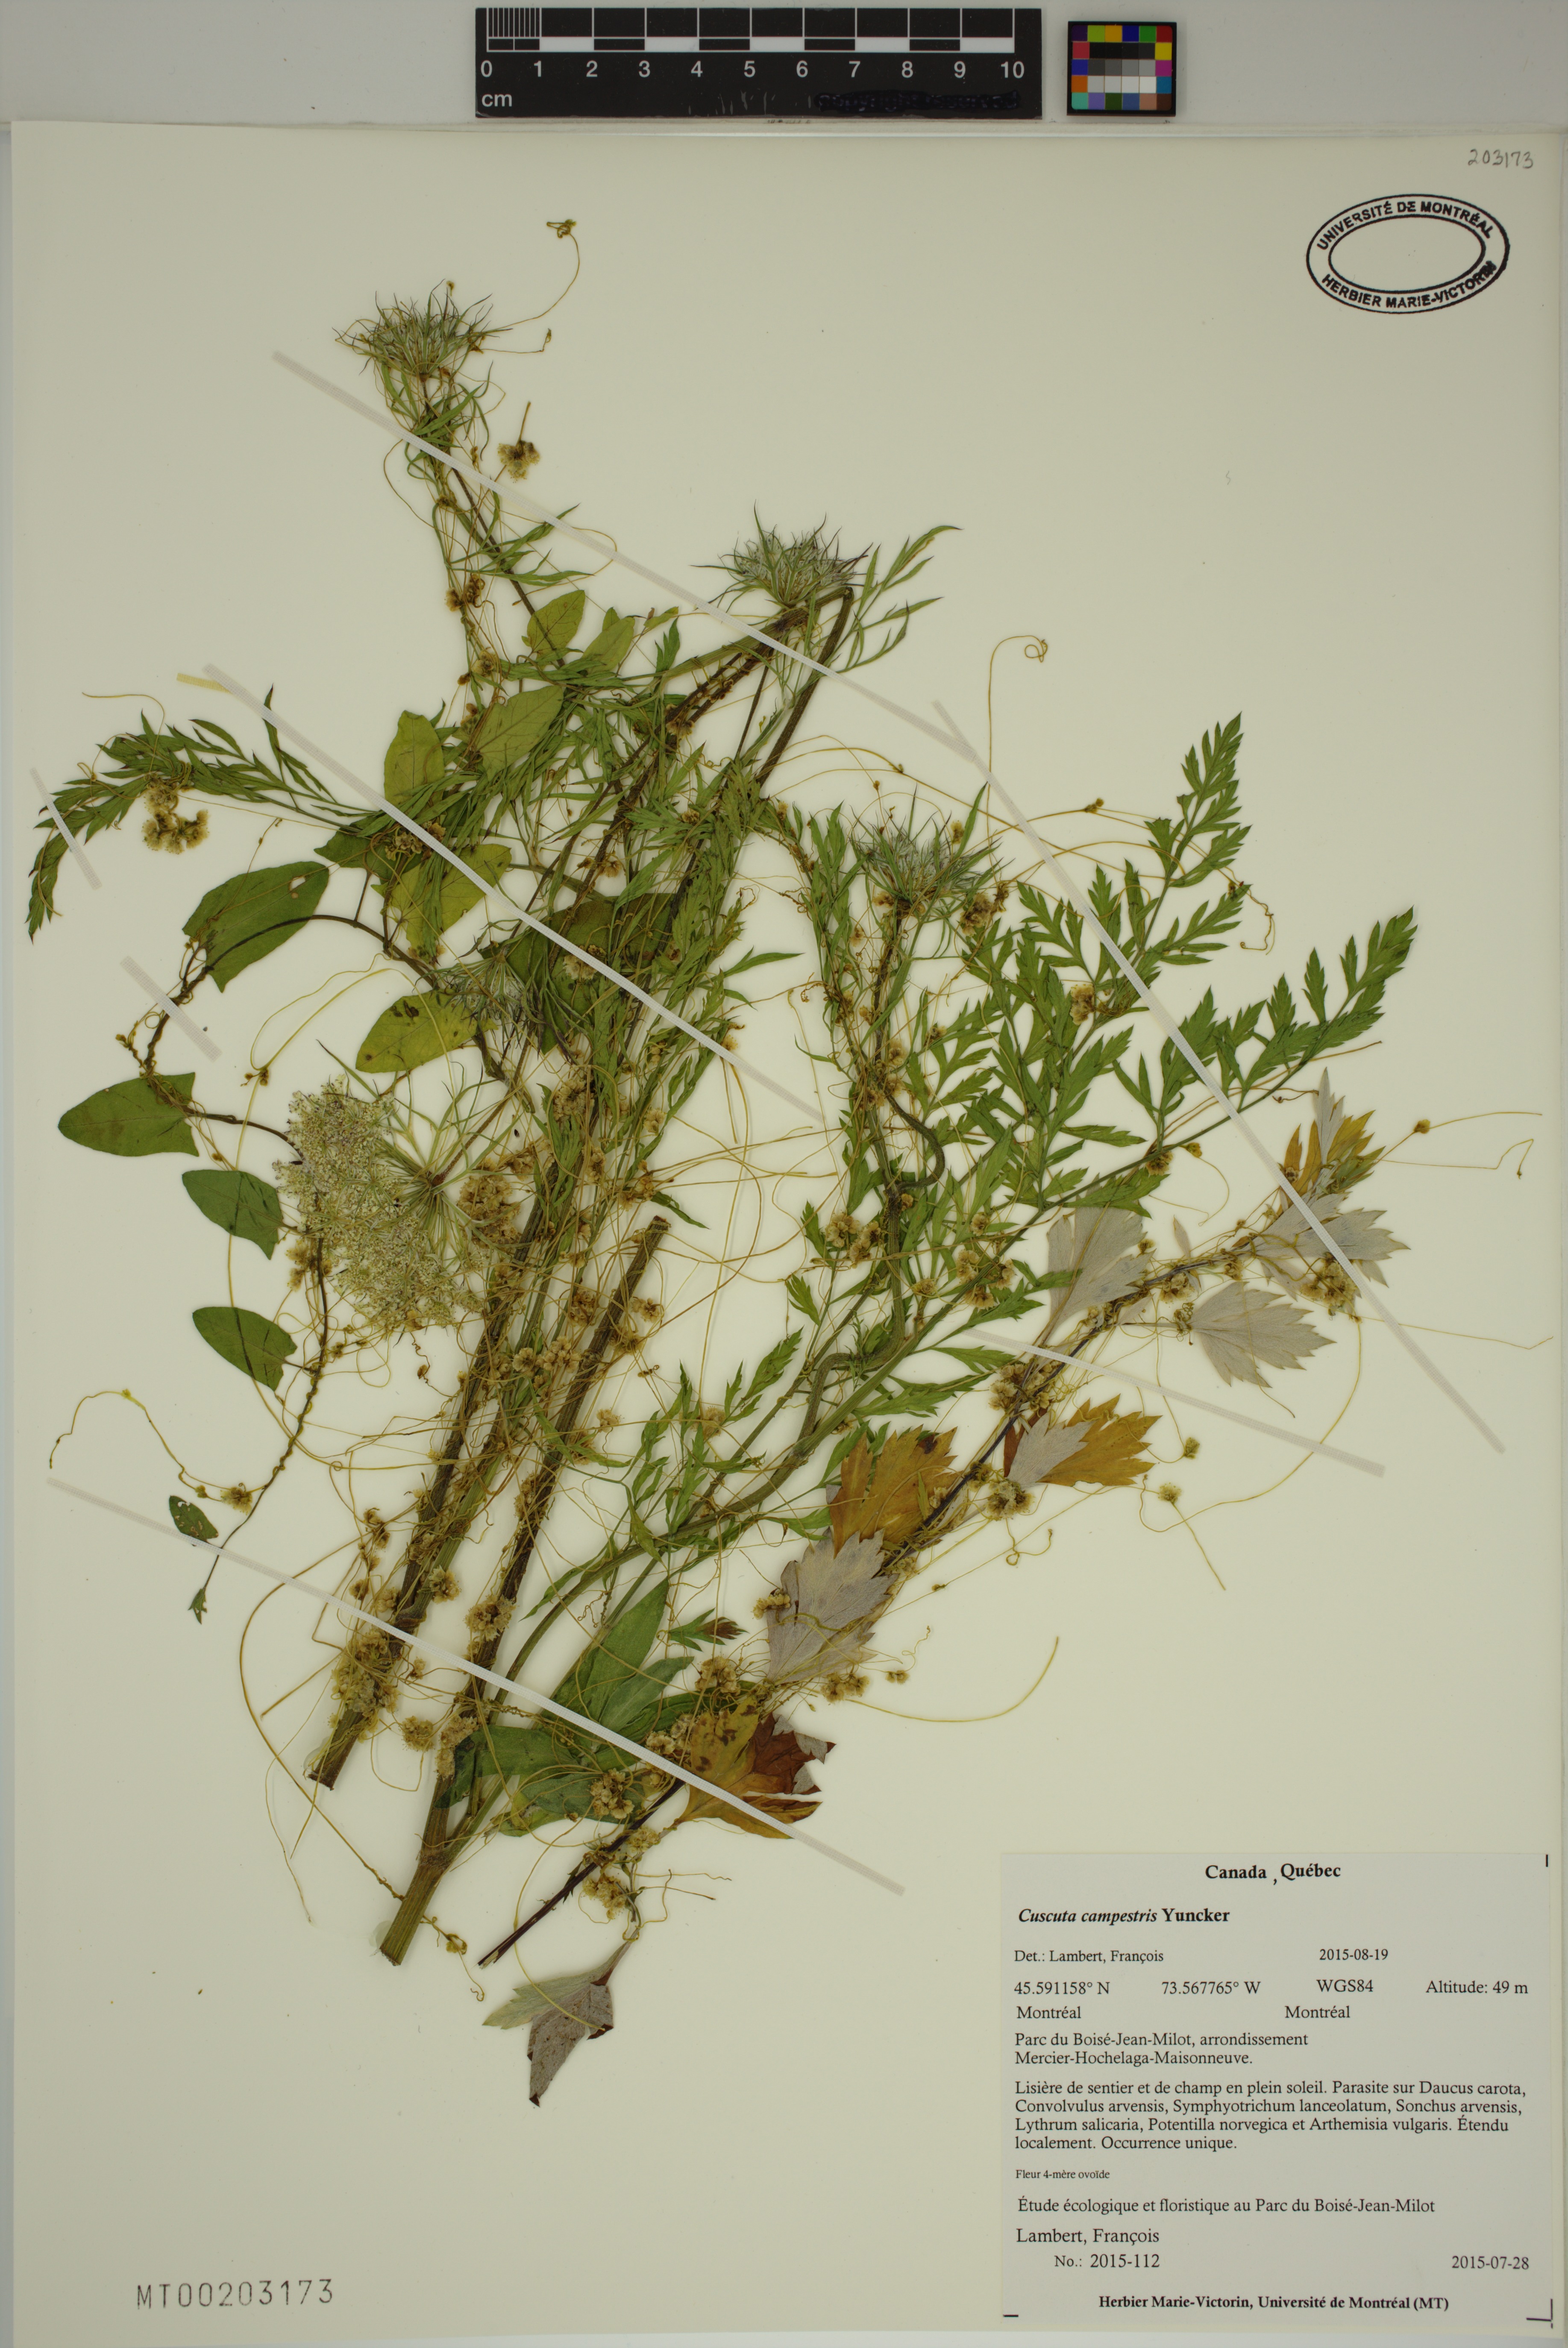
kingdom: Plantae
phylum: Tracheophyta
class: Magnoliopsida
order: Solanales
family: Convolvulaceae
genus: Cuscuta
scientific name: Cuscuta campestris
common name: Yellow dodder
